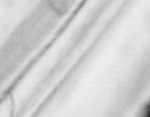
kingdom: Animalia
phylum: Chordata
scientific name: Chordata
